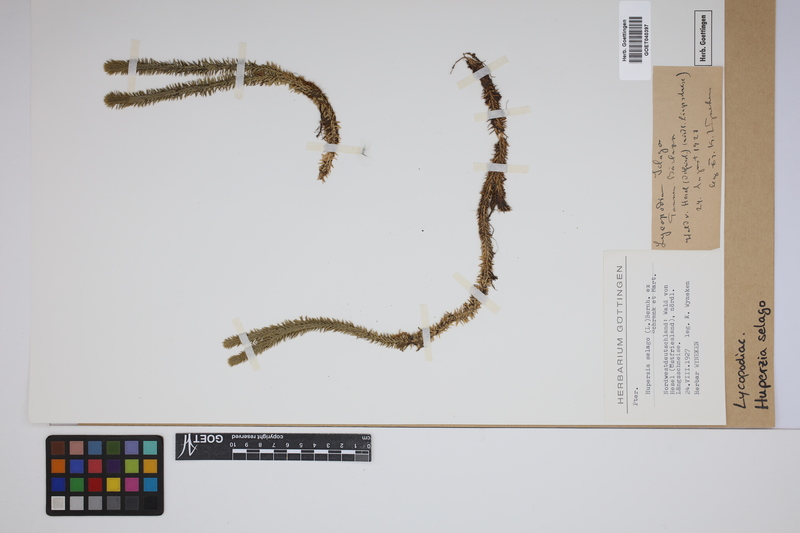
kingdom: Plantae
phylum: Tracheophyta
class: Lycopodiopsida
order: Lycopodiales
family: Lycopodiaceae
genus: Huperzia
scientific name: Huperzia selago
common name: Northern firmoss
